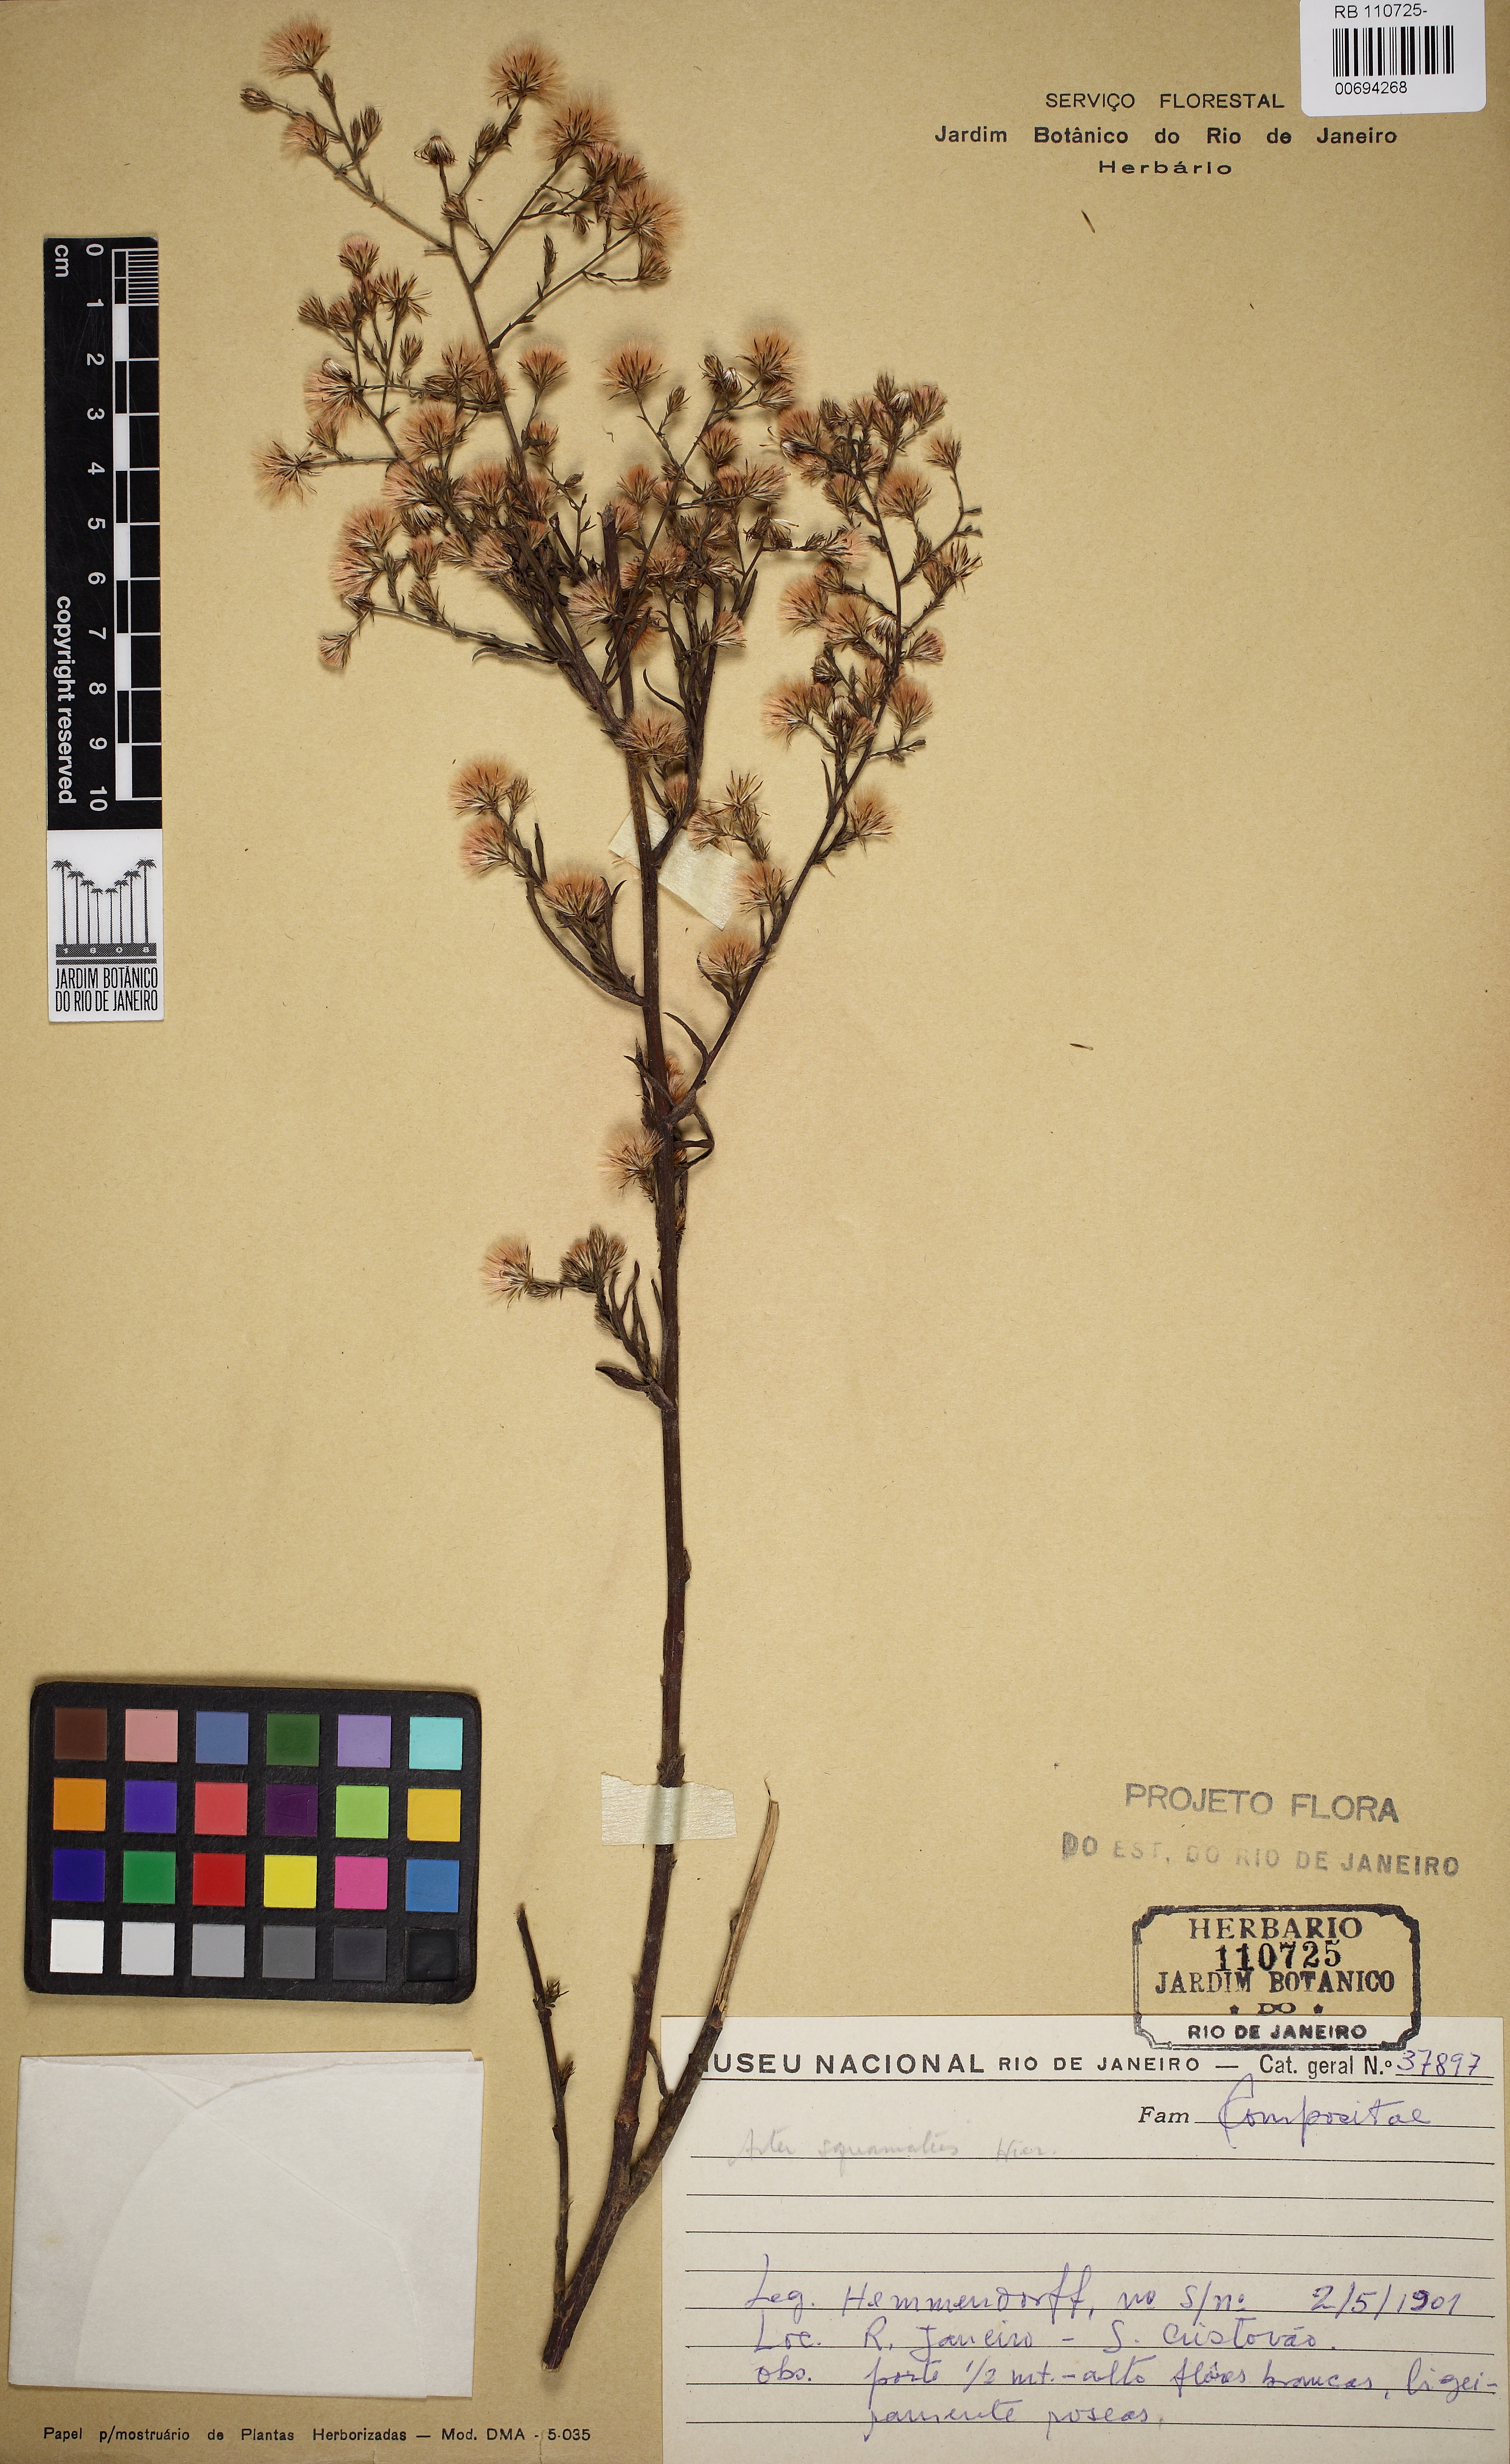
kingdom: Plantae
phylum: Tracheophyta
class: Magnoliopsida
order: Asterales
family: Asteraceae
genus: Symphyotrichum
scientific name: Symphyotrichum squamatum
